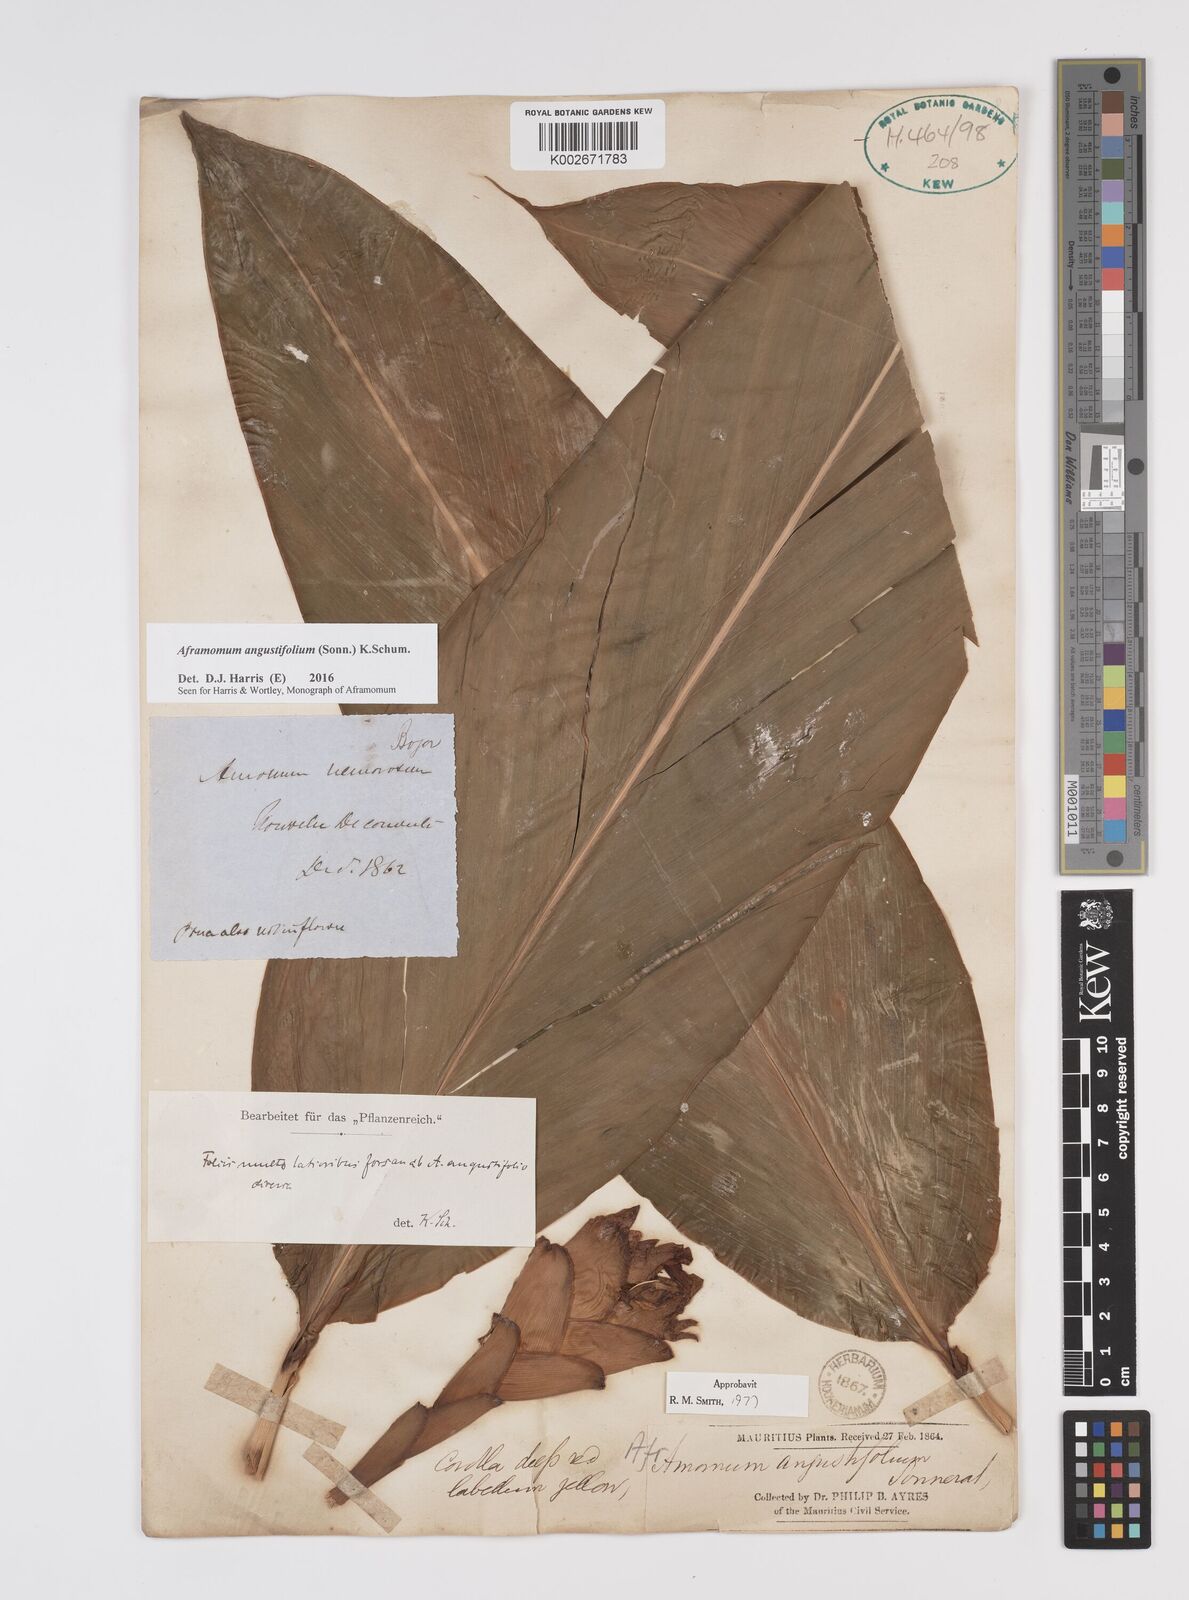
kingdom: Plantae
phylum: Tracheophyta
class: Liliopsida
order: Zingiberales
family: Zingiberaceae
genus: Aframomum
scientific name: Aframomum angustifolium
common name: Guinea grains
